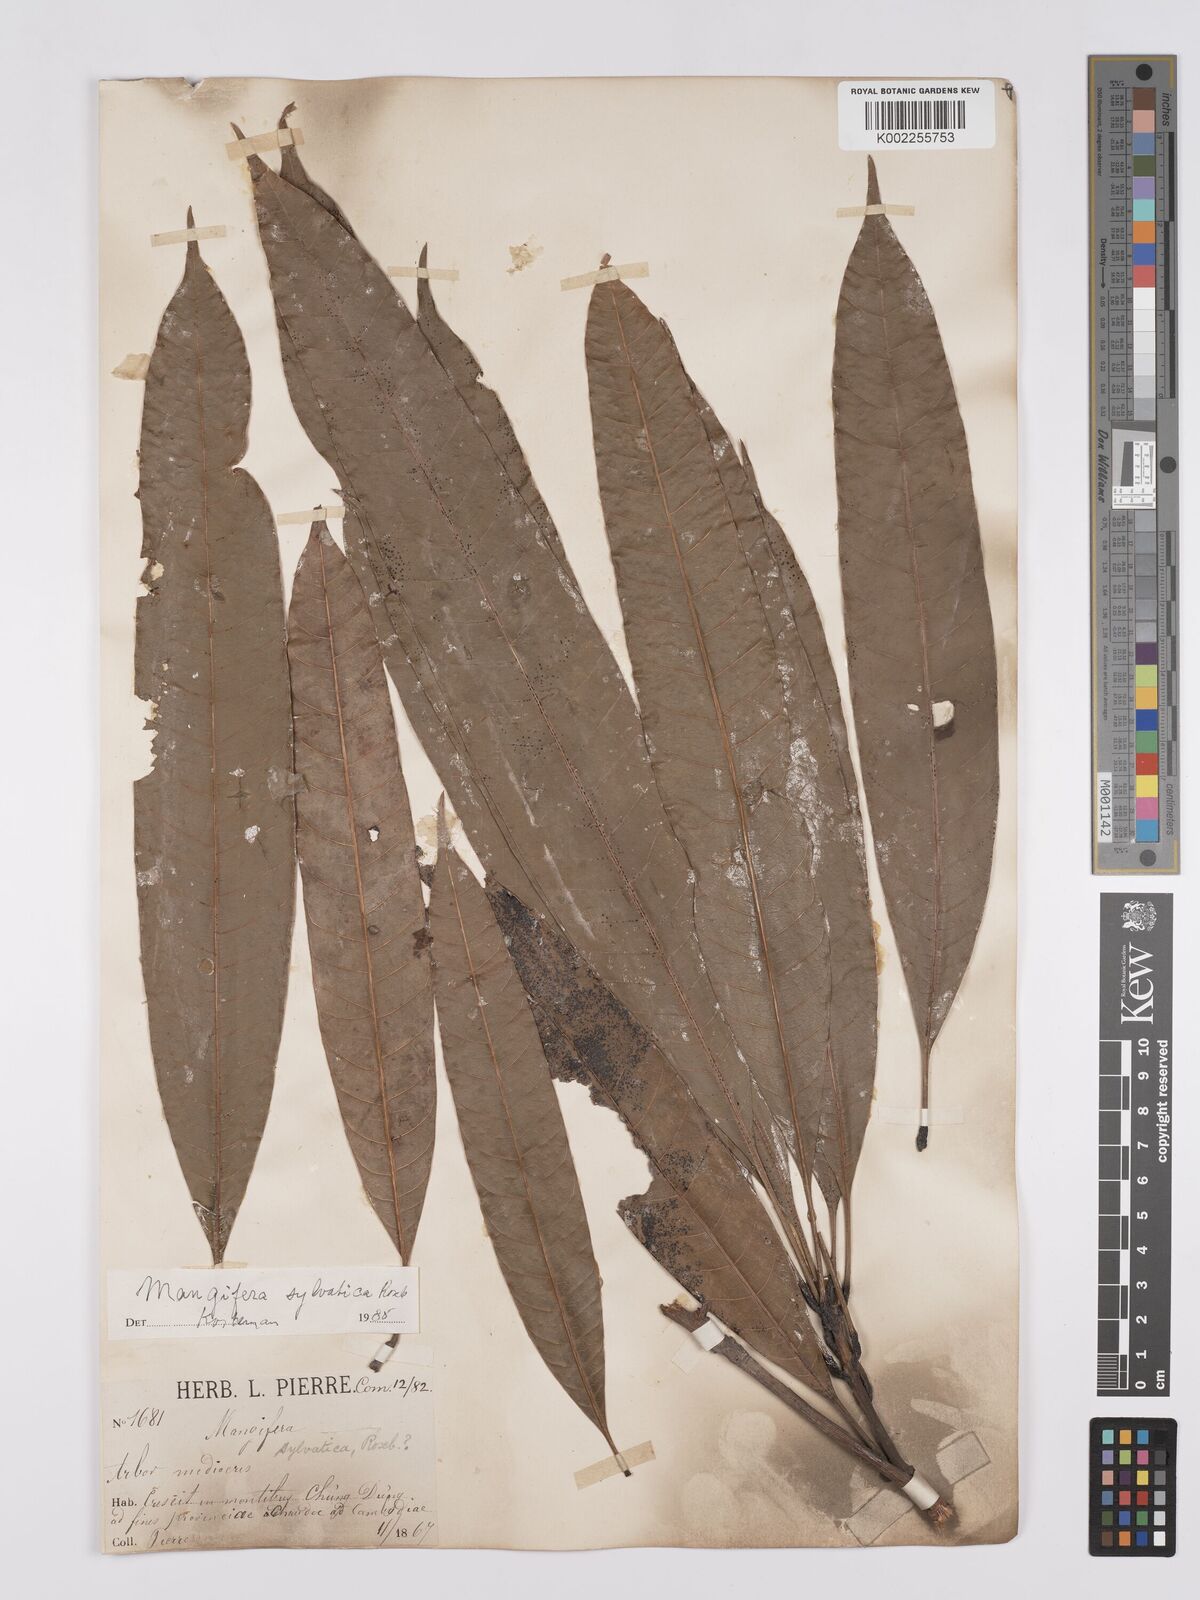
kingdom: Plantae
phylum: Tracheophyta
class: Magnoliopsida
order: Sapindales
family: Anacardiaceae
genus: Mangifera
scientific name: Mangifera sylvatica
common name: Nepal mango
